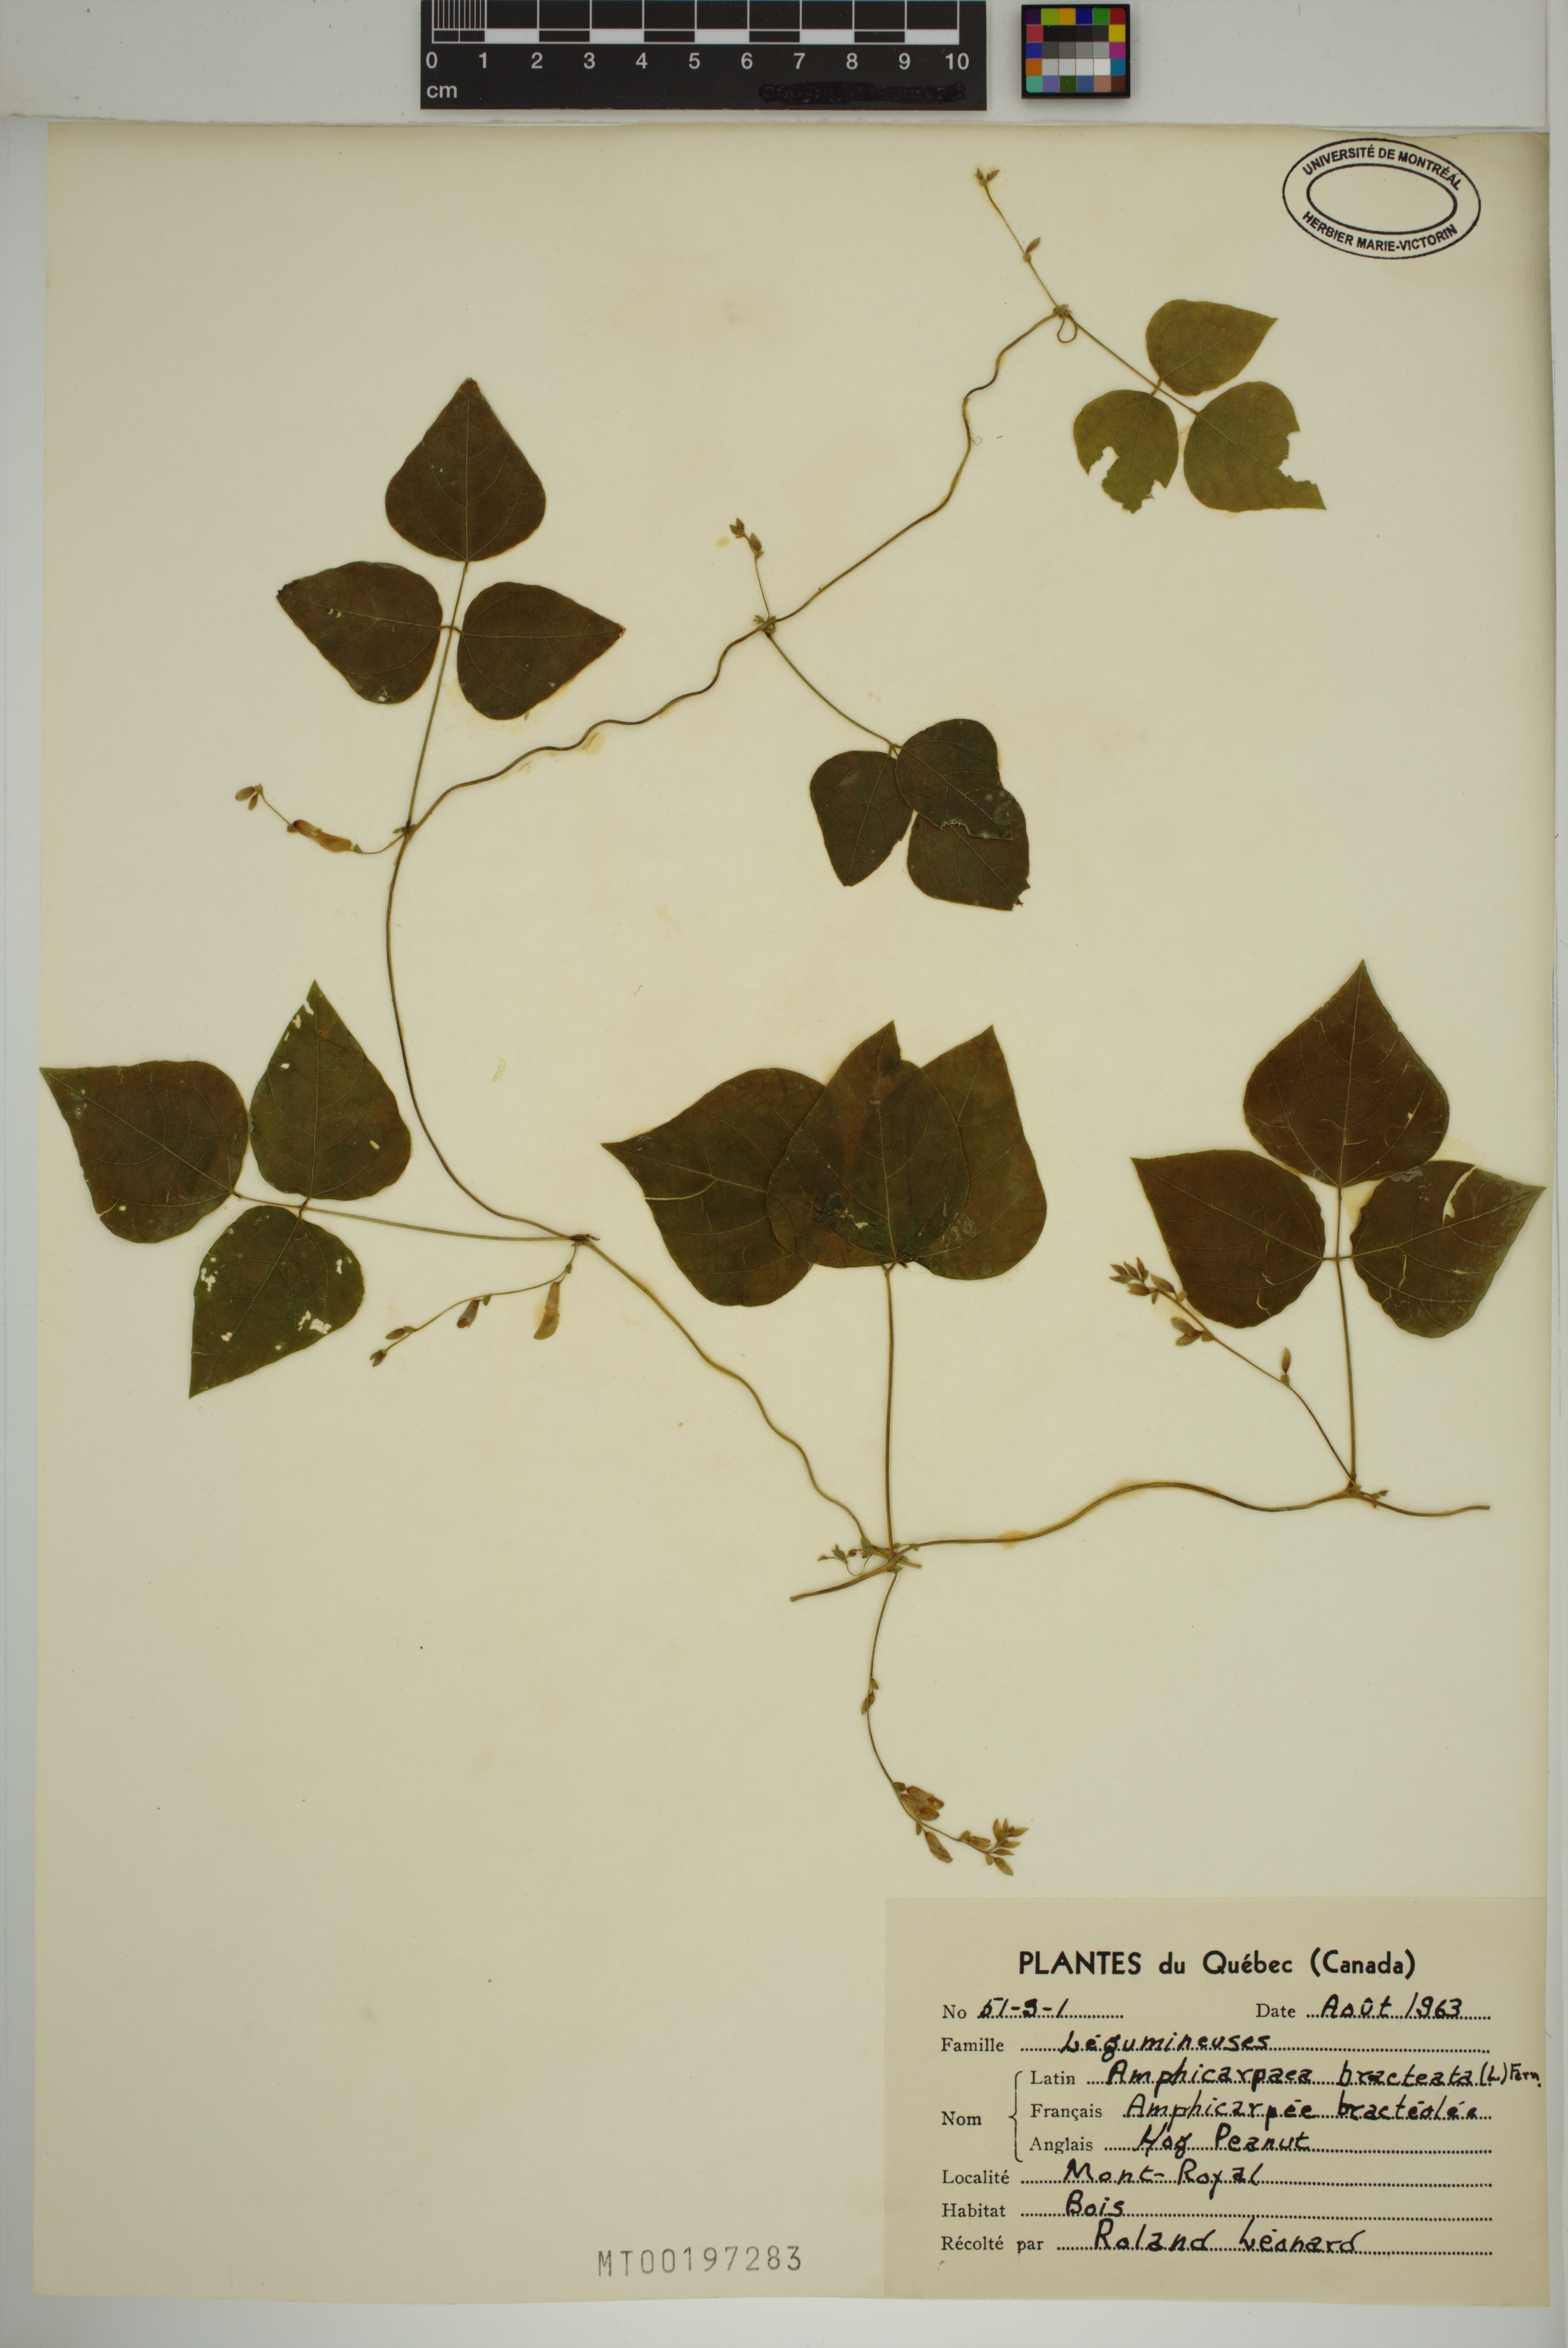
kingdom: Plantae
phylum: Tracheophyta
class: Magnoliopsida
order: Fabales
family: Fabaceae
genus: Amphicarpaea
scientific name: Amphicarpaea bracteata
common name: American hog peanut
